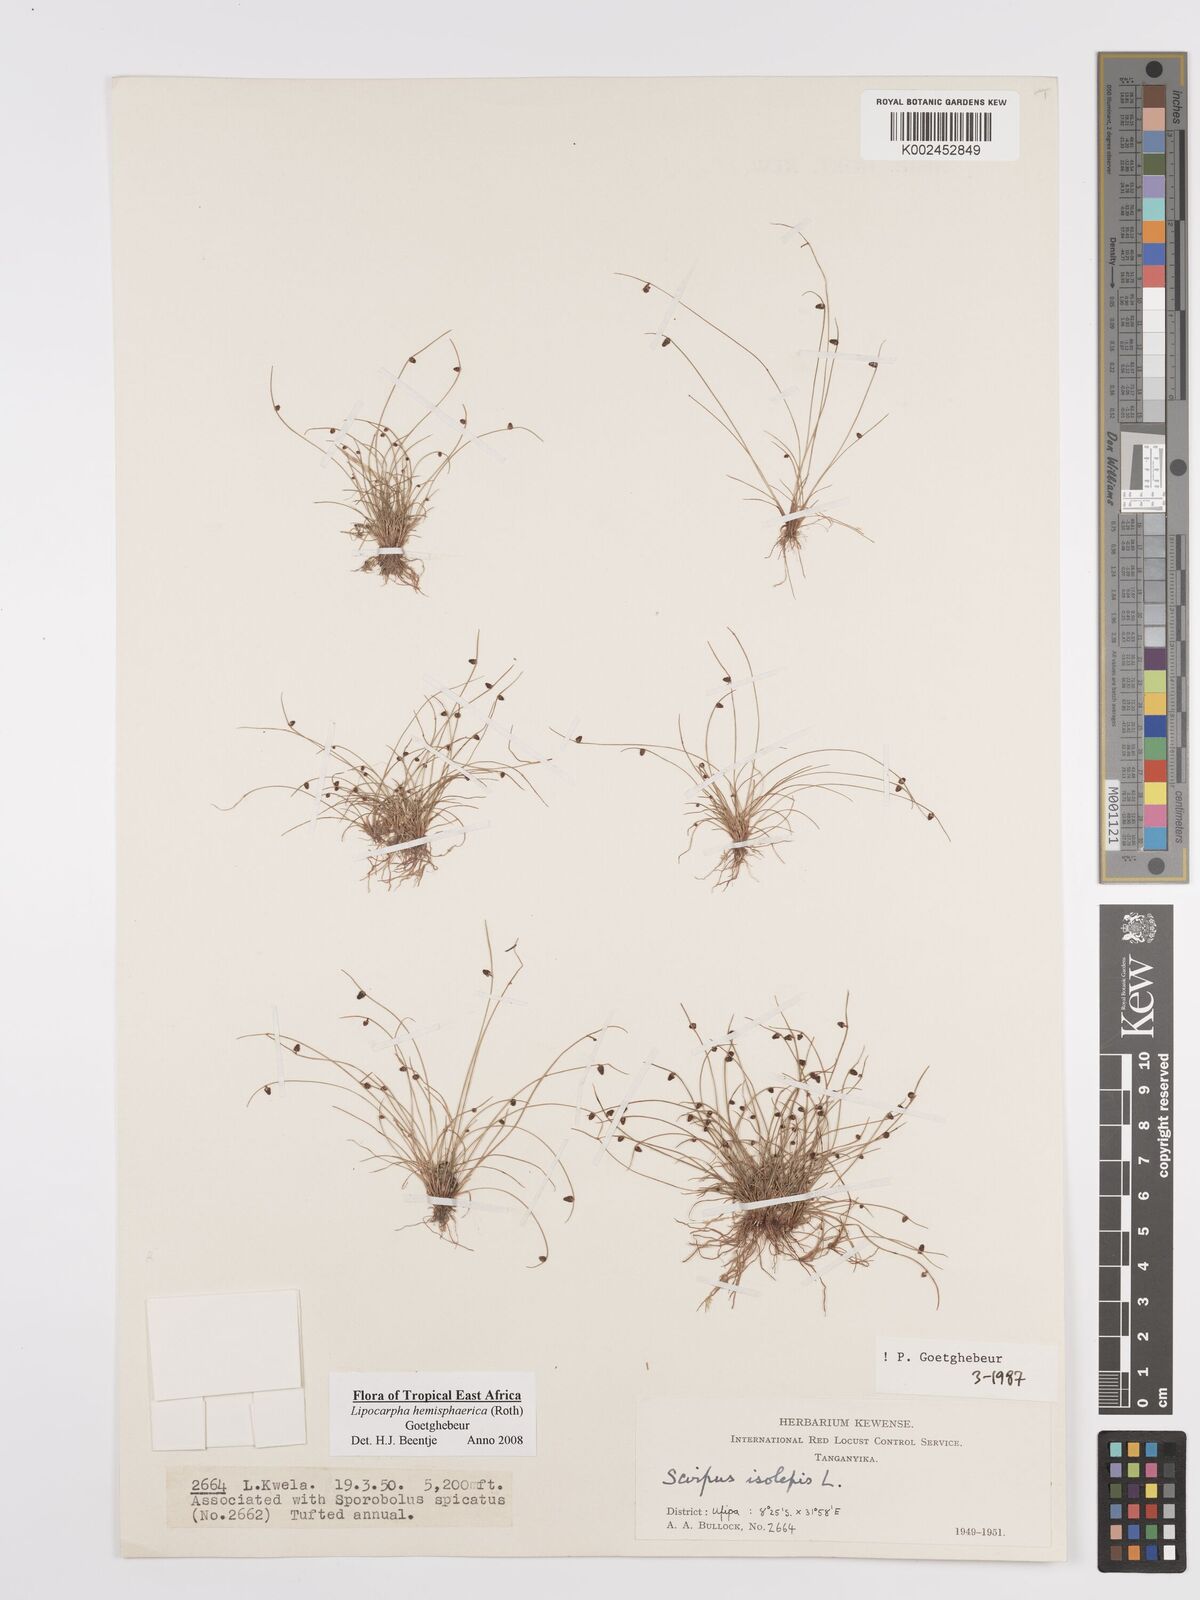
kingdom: Plantae
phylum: Tracheophyta
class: Liliopsida
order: Poales
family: Cyperaceae
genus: Cyperus
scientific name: Cyperus hemisphaericus
